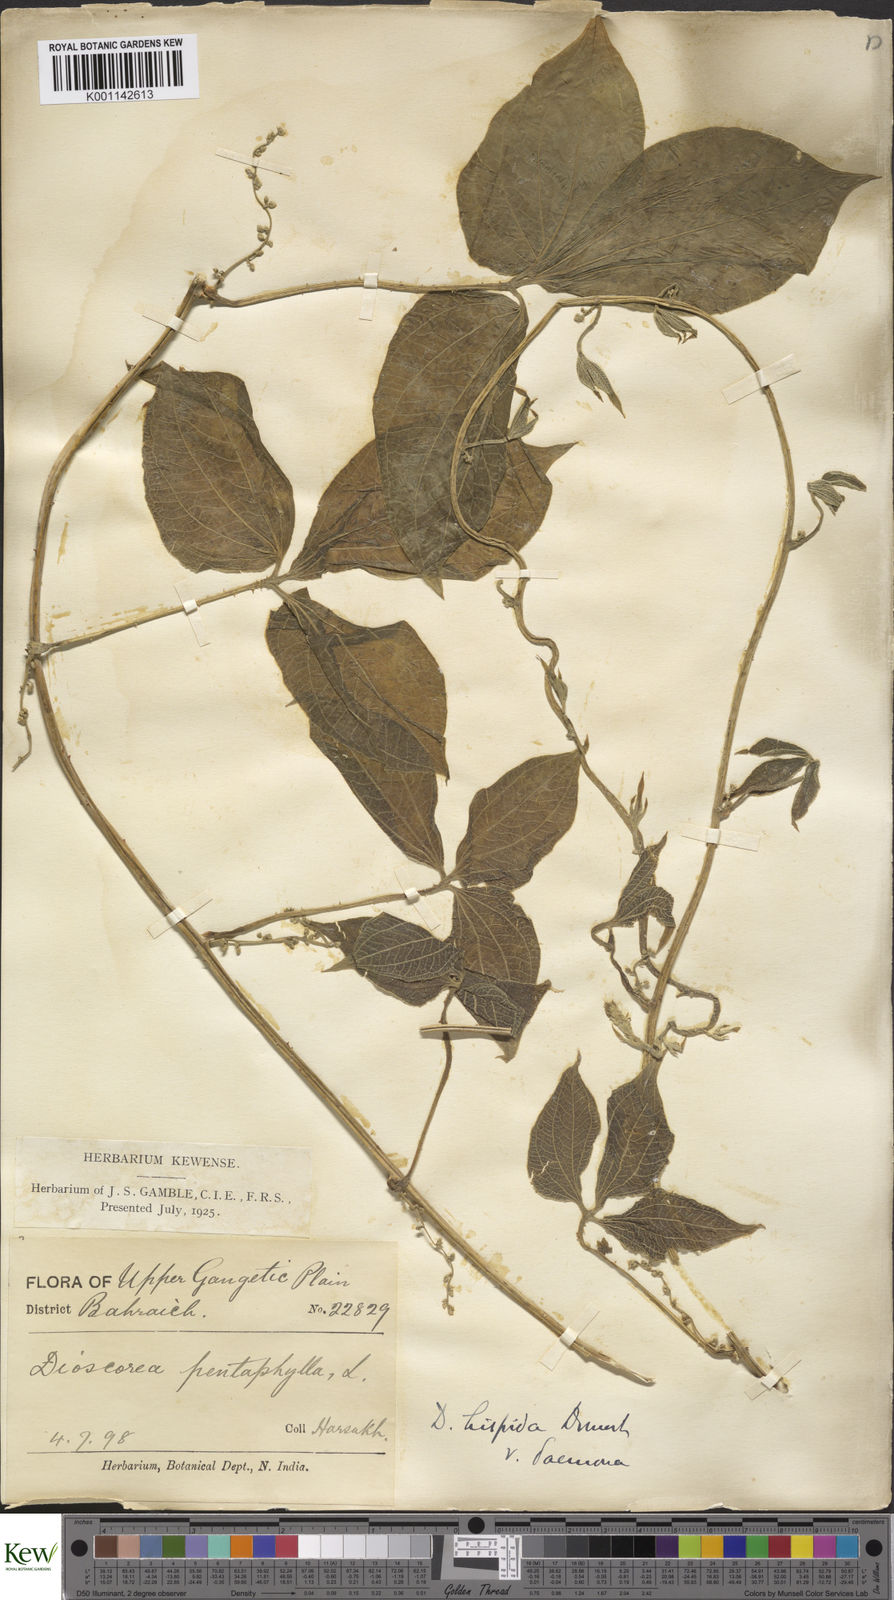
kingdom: Plantae
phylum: Tracheophyta
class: Liliopsida
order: Dioscoreales
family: Dioscoreaceae
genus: Dioscorea
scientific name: Dioscorea hispida
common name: Asiatic bitter yam
